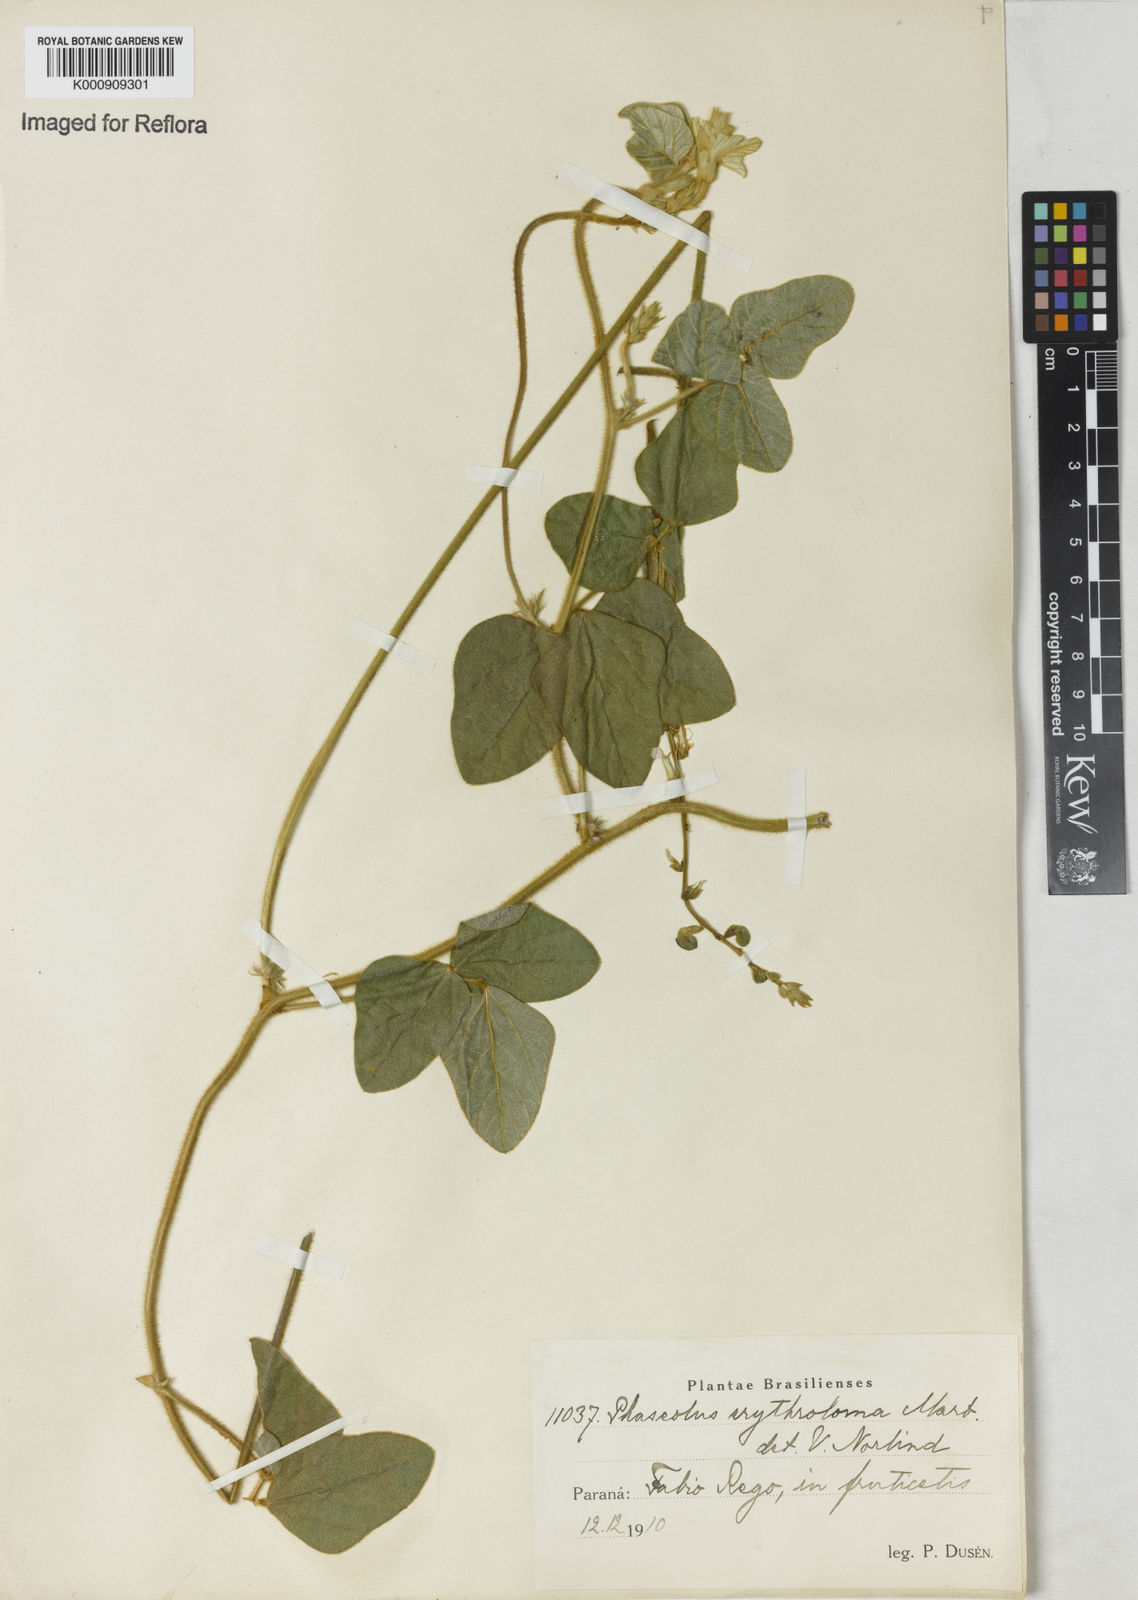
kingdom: Plantae
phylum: Tracheophyta
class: Magnoliopsida
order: Fabales
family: Fabaceae
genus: Macroptilium
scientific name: Macroptilium erythroloma
